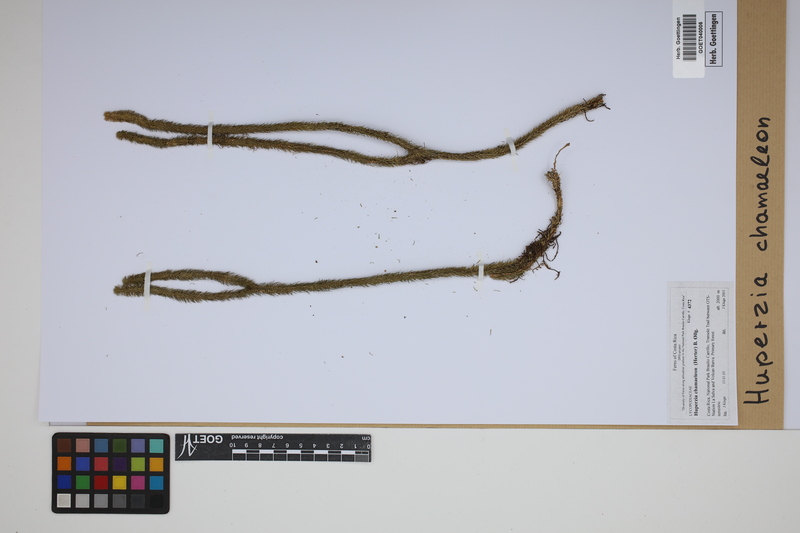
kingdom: Plantae
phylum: Tracheophyta
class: Lycopodiopsida
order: Lycopodiales
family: Lycopodiaceae
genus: Phlegmariurus
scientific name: Phlegmariurus chamaeleon
